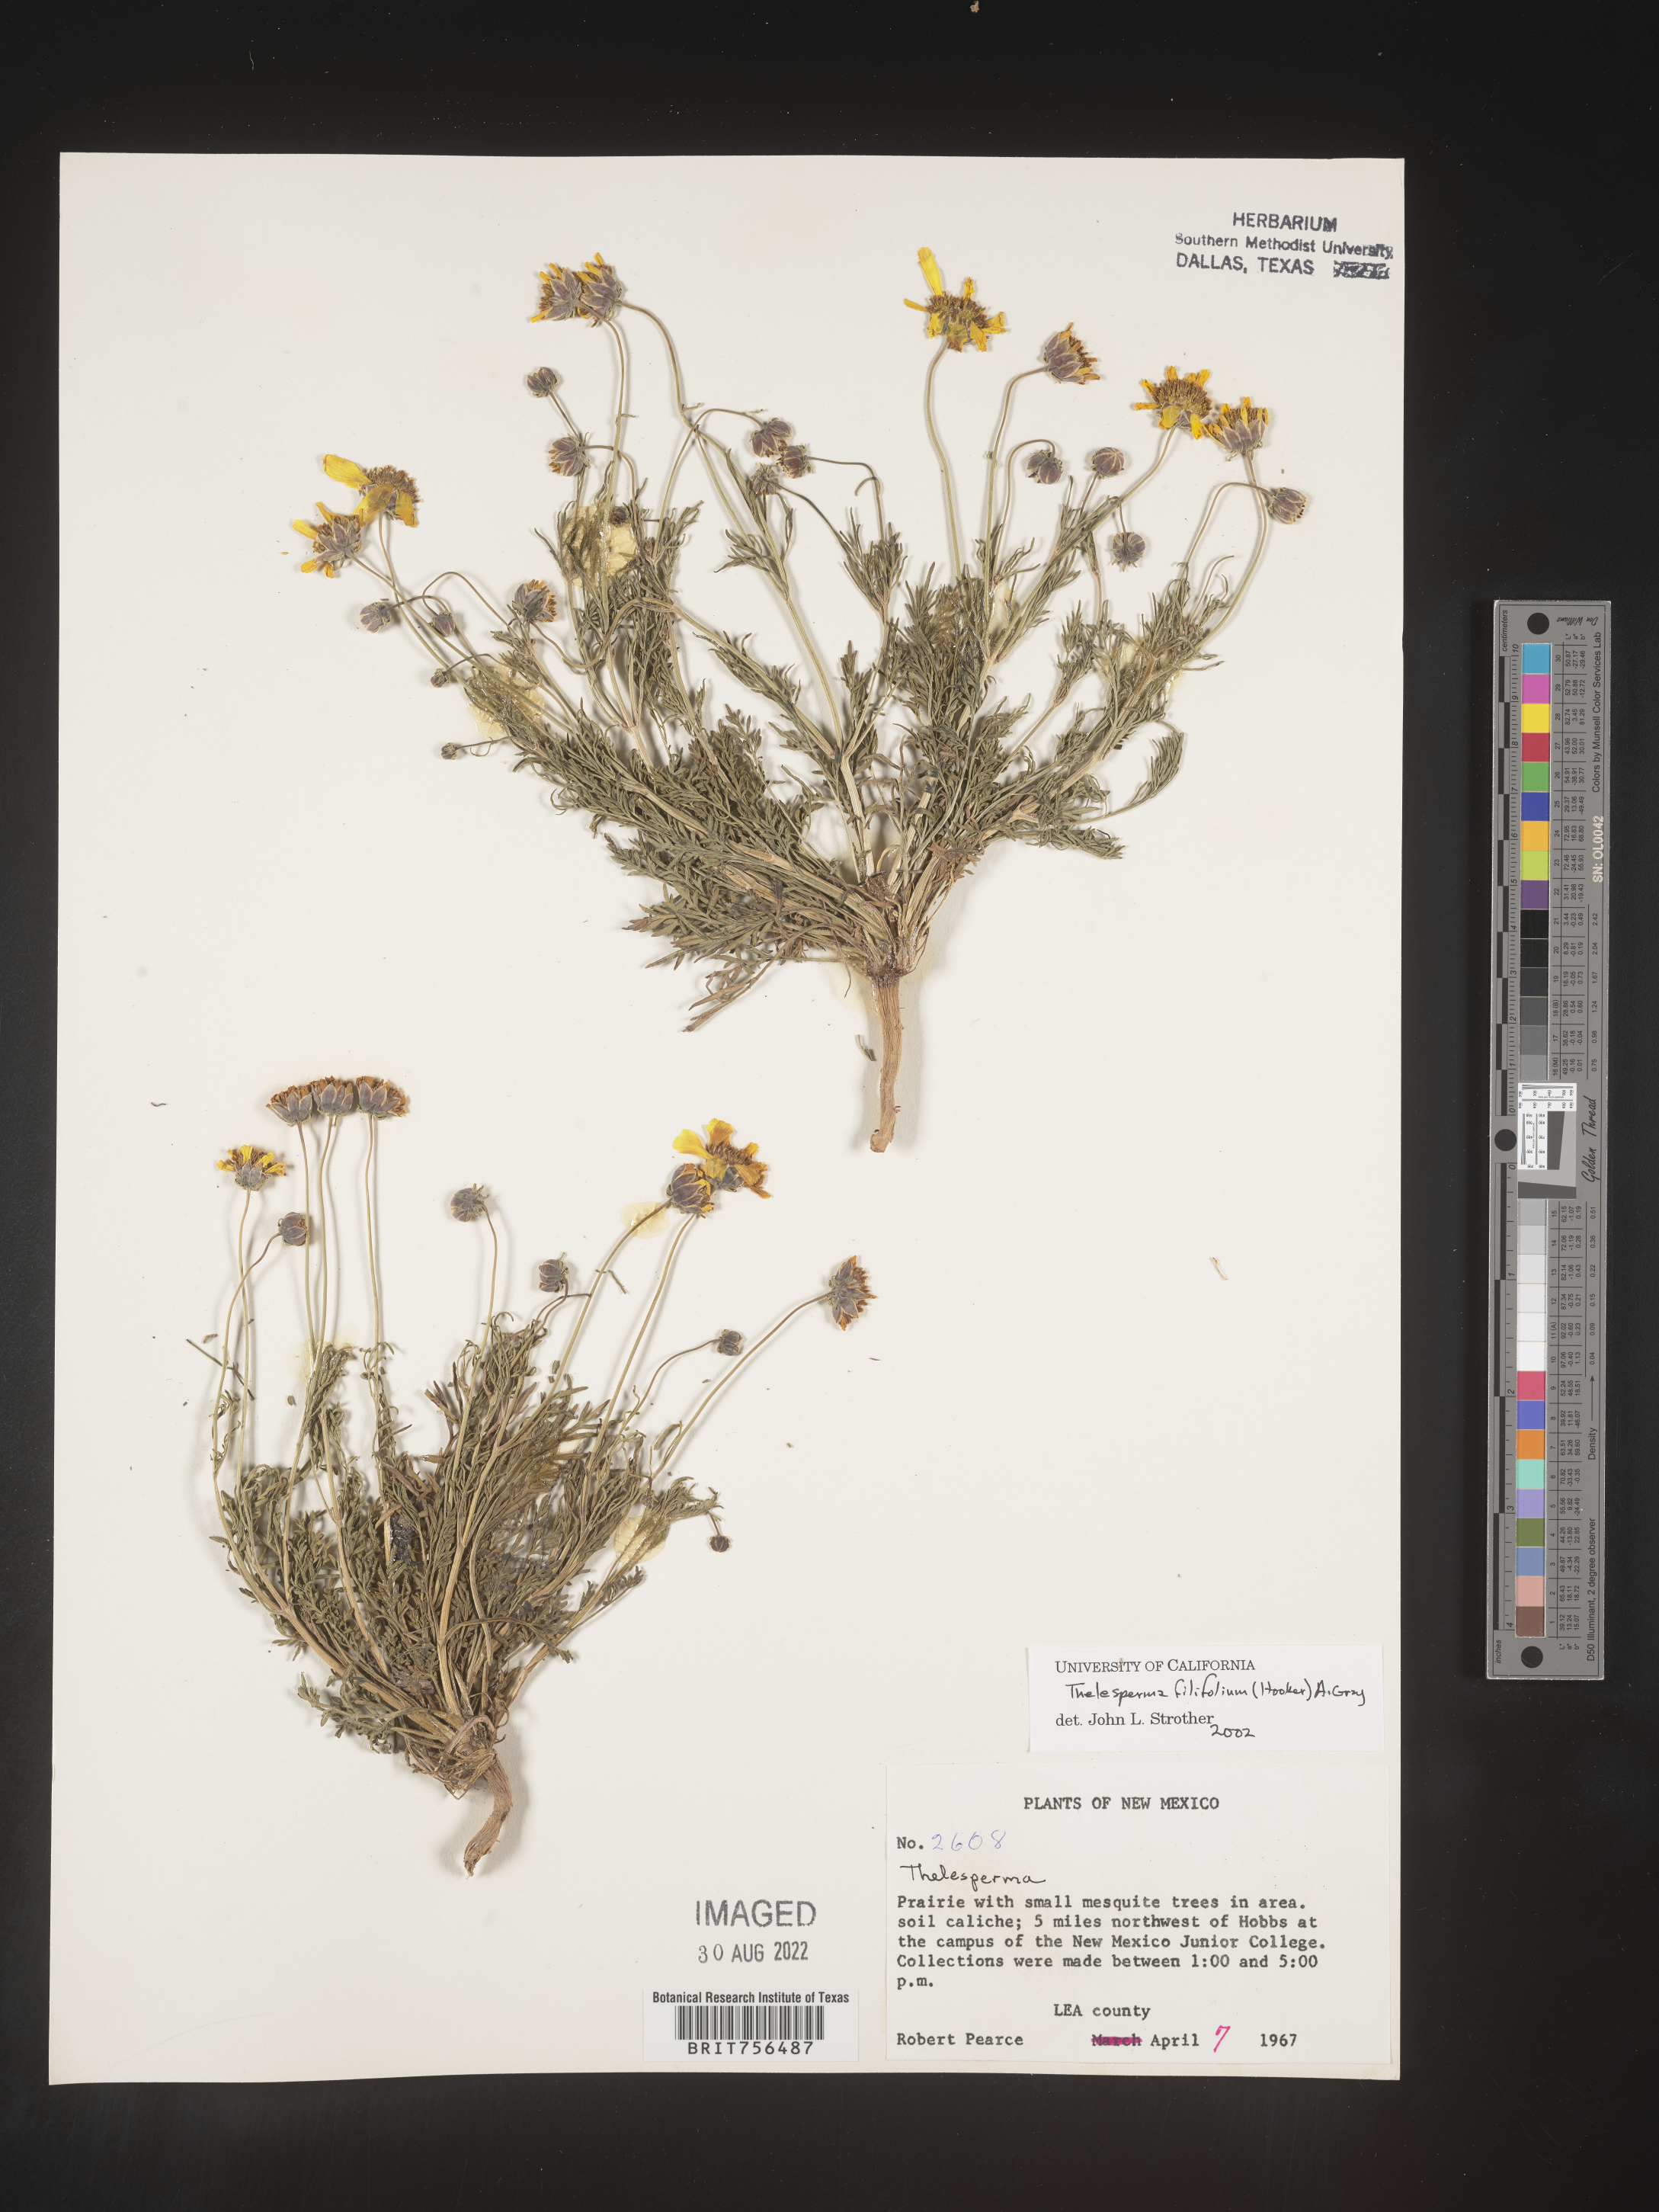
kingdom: Plantae
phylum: Tracheophyta
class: Magnoliopsida
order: Asterales
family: Asteraceae
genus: Thelesperma
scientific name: Thelesperma filifolium
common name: Stiff greenthread
